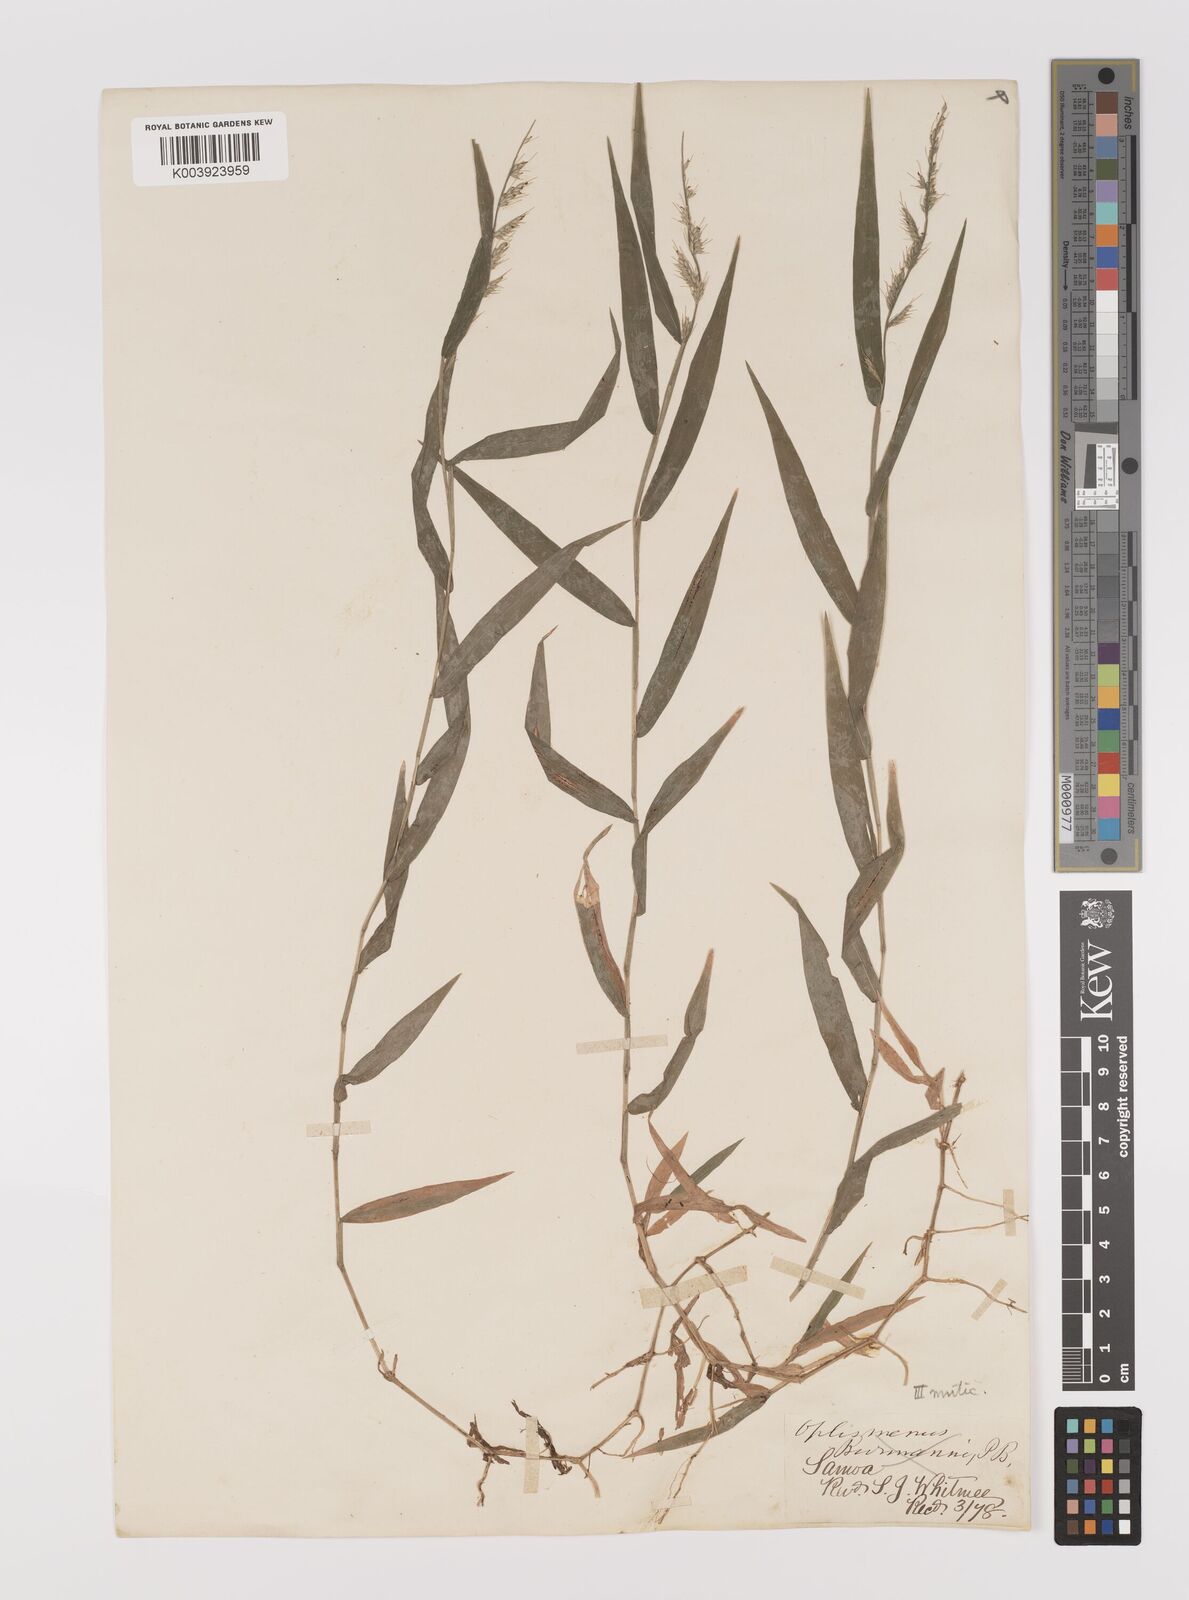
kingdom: Plantae
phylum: Tracheophyta
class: Liliopsida
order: Poales
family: Poaceae
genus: Oplismenus
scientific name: Oplismenus compositus
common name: Running mountain grass
